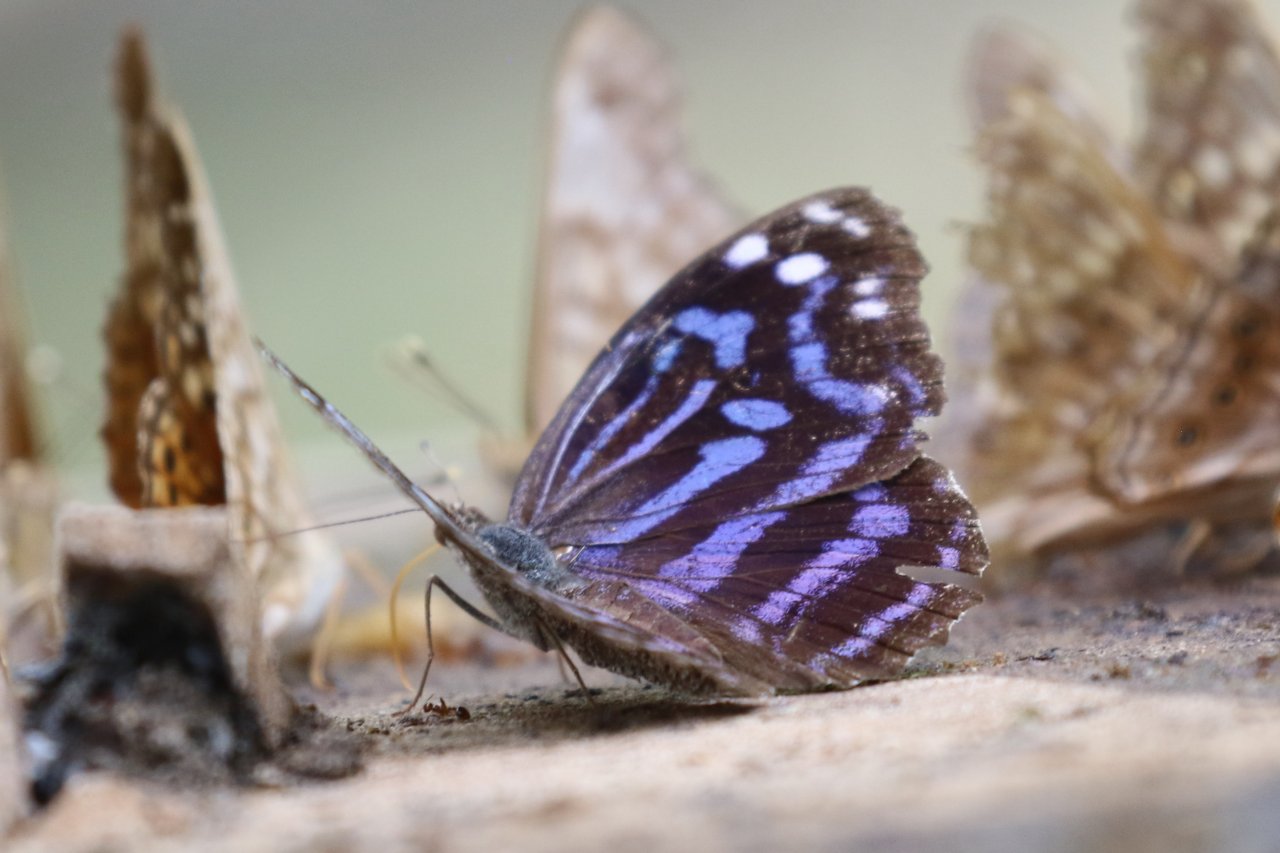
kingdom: Animalia
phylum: Arthropoda
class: Insecta
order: Lepidoptera
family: Nymphalidae
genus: Myscelia
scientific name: Myscelia ethusa
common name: Mexican Bluewing
